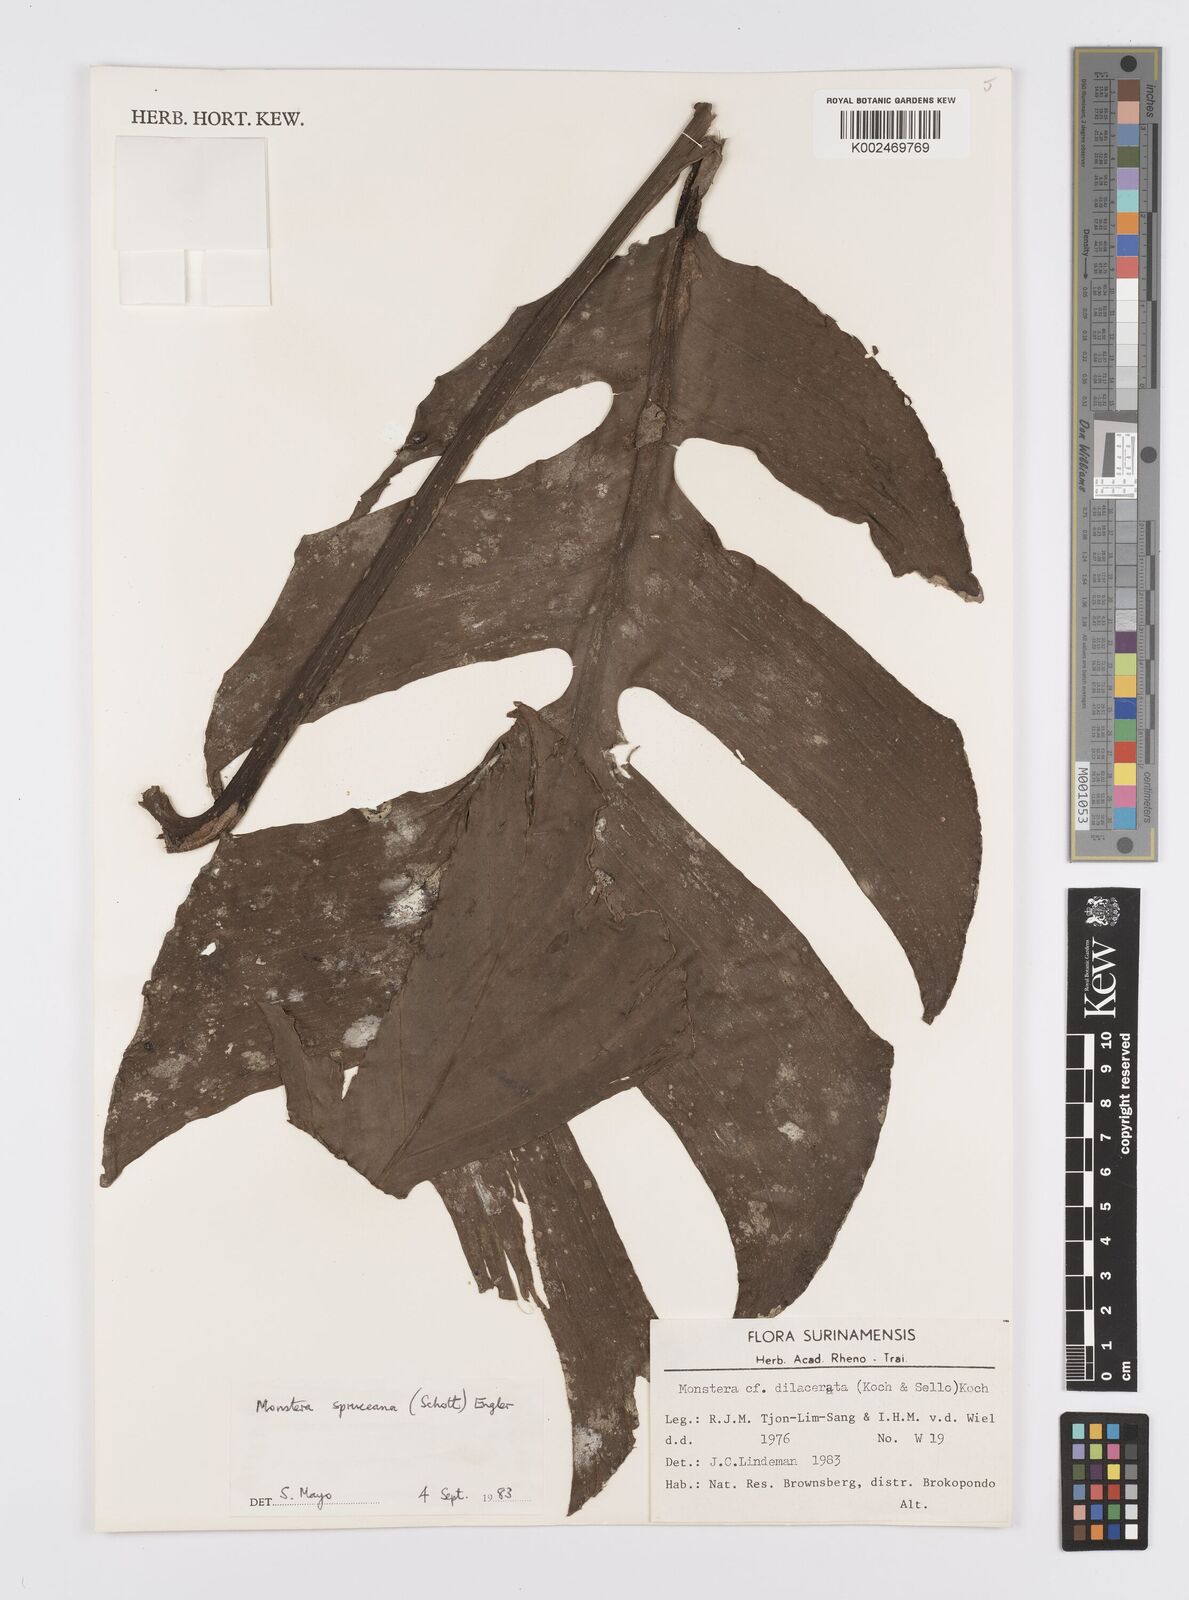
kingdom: Plantae
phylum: Tracheophyta
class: Liliopsida
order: Alismatales
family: Araceae
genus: Monstera
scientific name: Monstera spruceana
